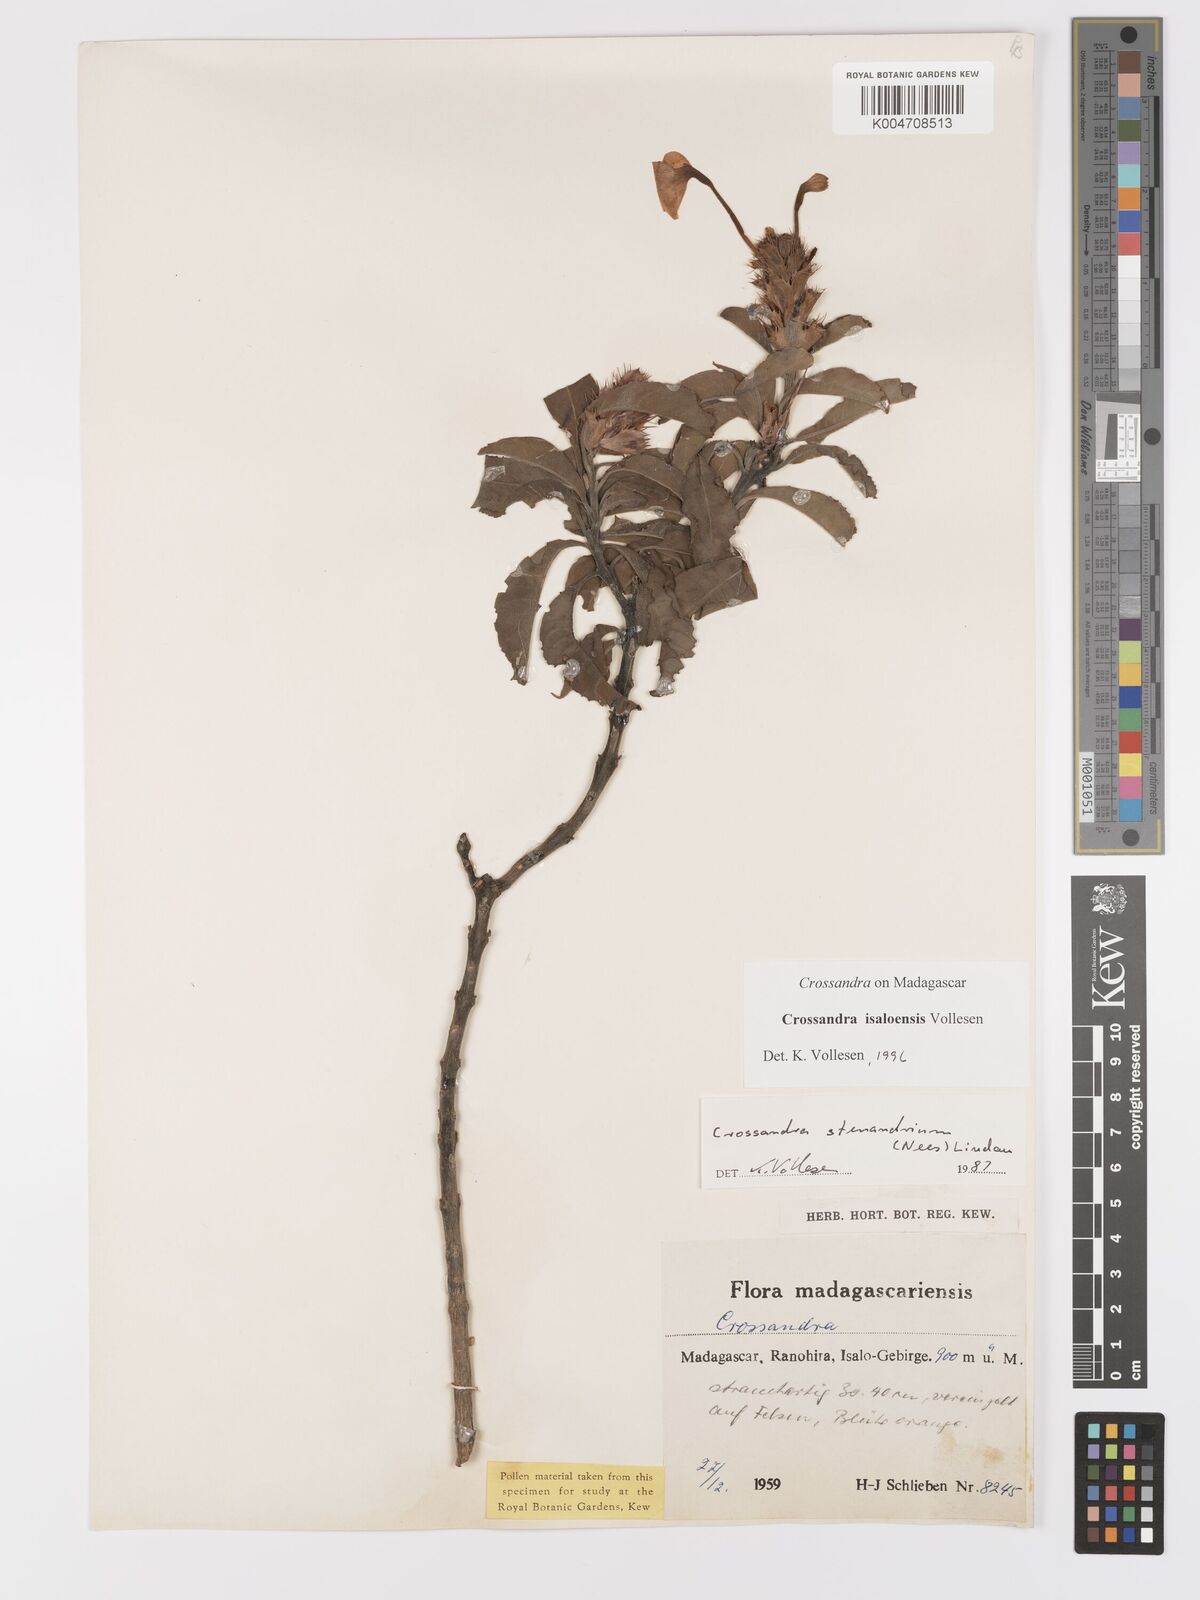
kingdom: Plantae
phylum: Tracheophyta
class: Magnoliopsida
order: Lamiales
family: Acanthaceae
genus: Crossandra
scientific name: Crossandra isaloensis
